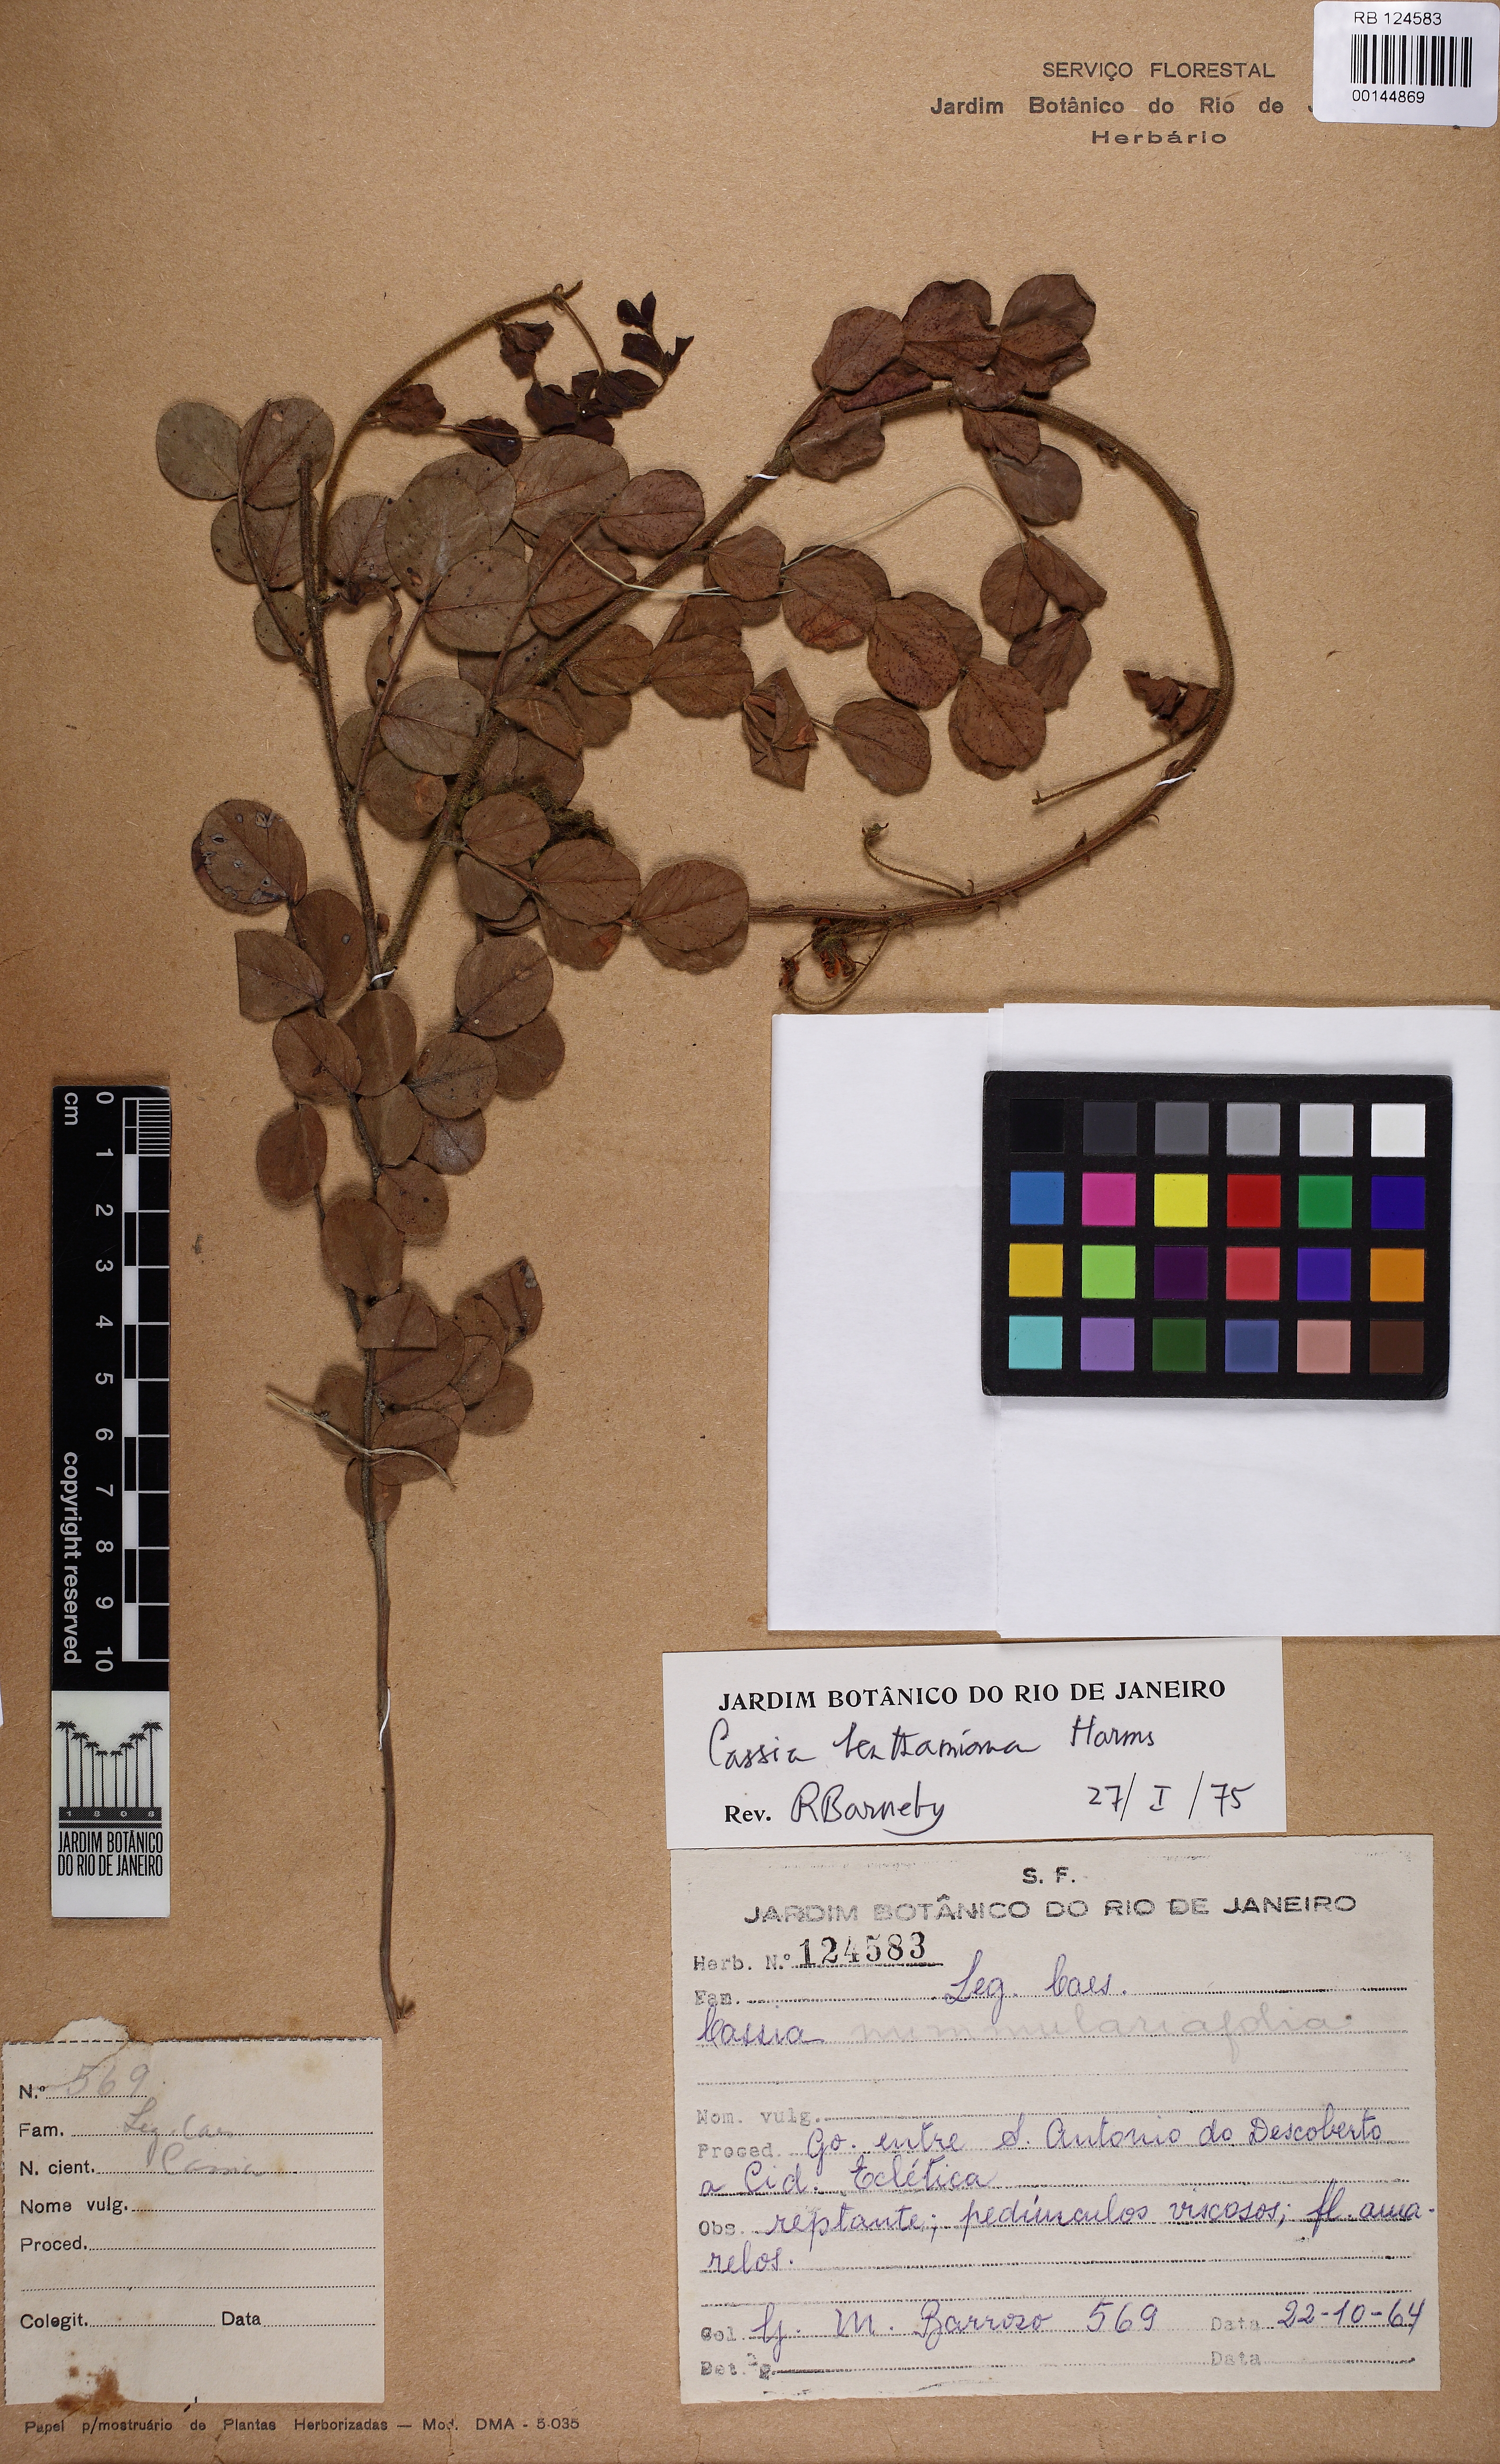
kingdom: Plantae
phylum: Tracheophyta
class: Magnoliopsida
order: Fabales
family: Fabaceae
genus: Chamaecrista
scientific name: Chamaecrista benthamiana
